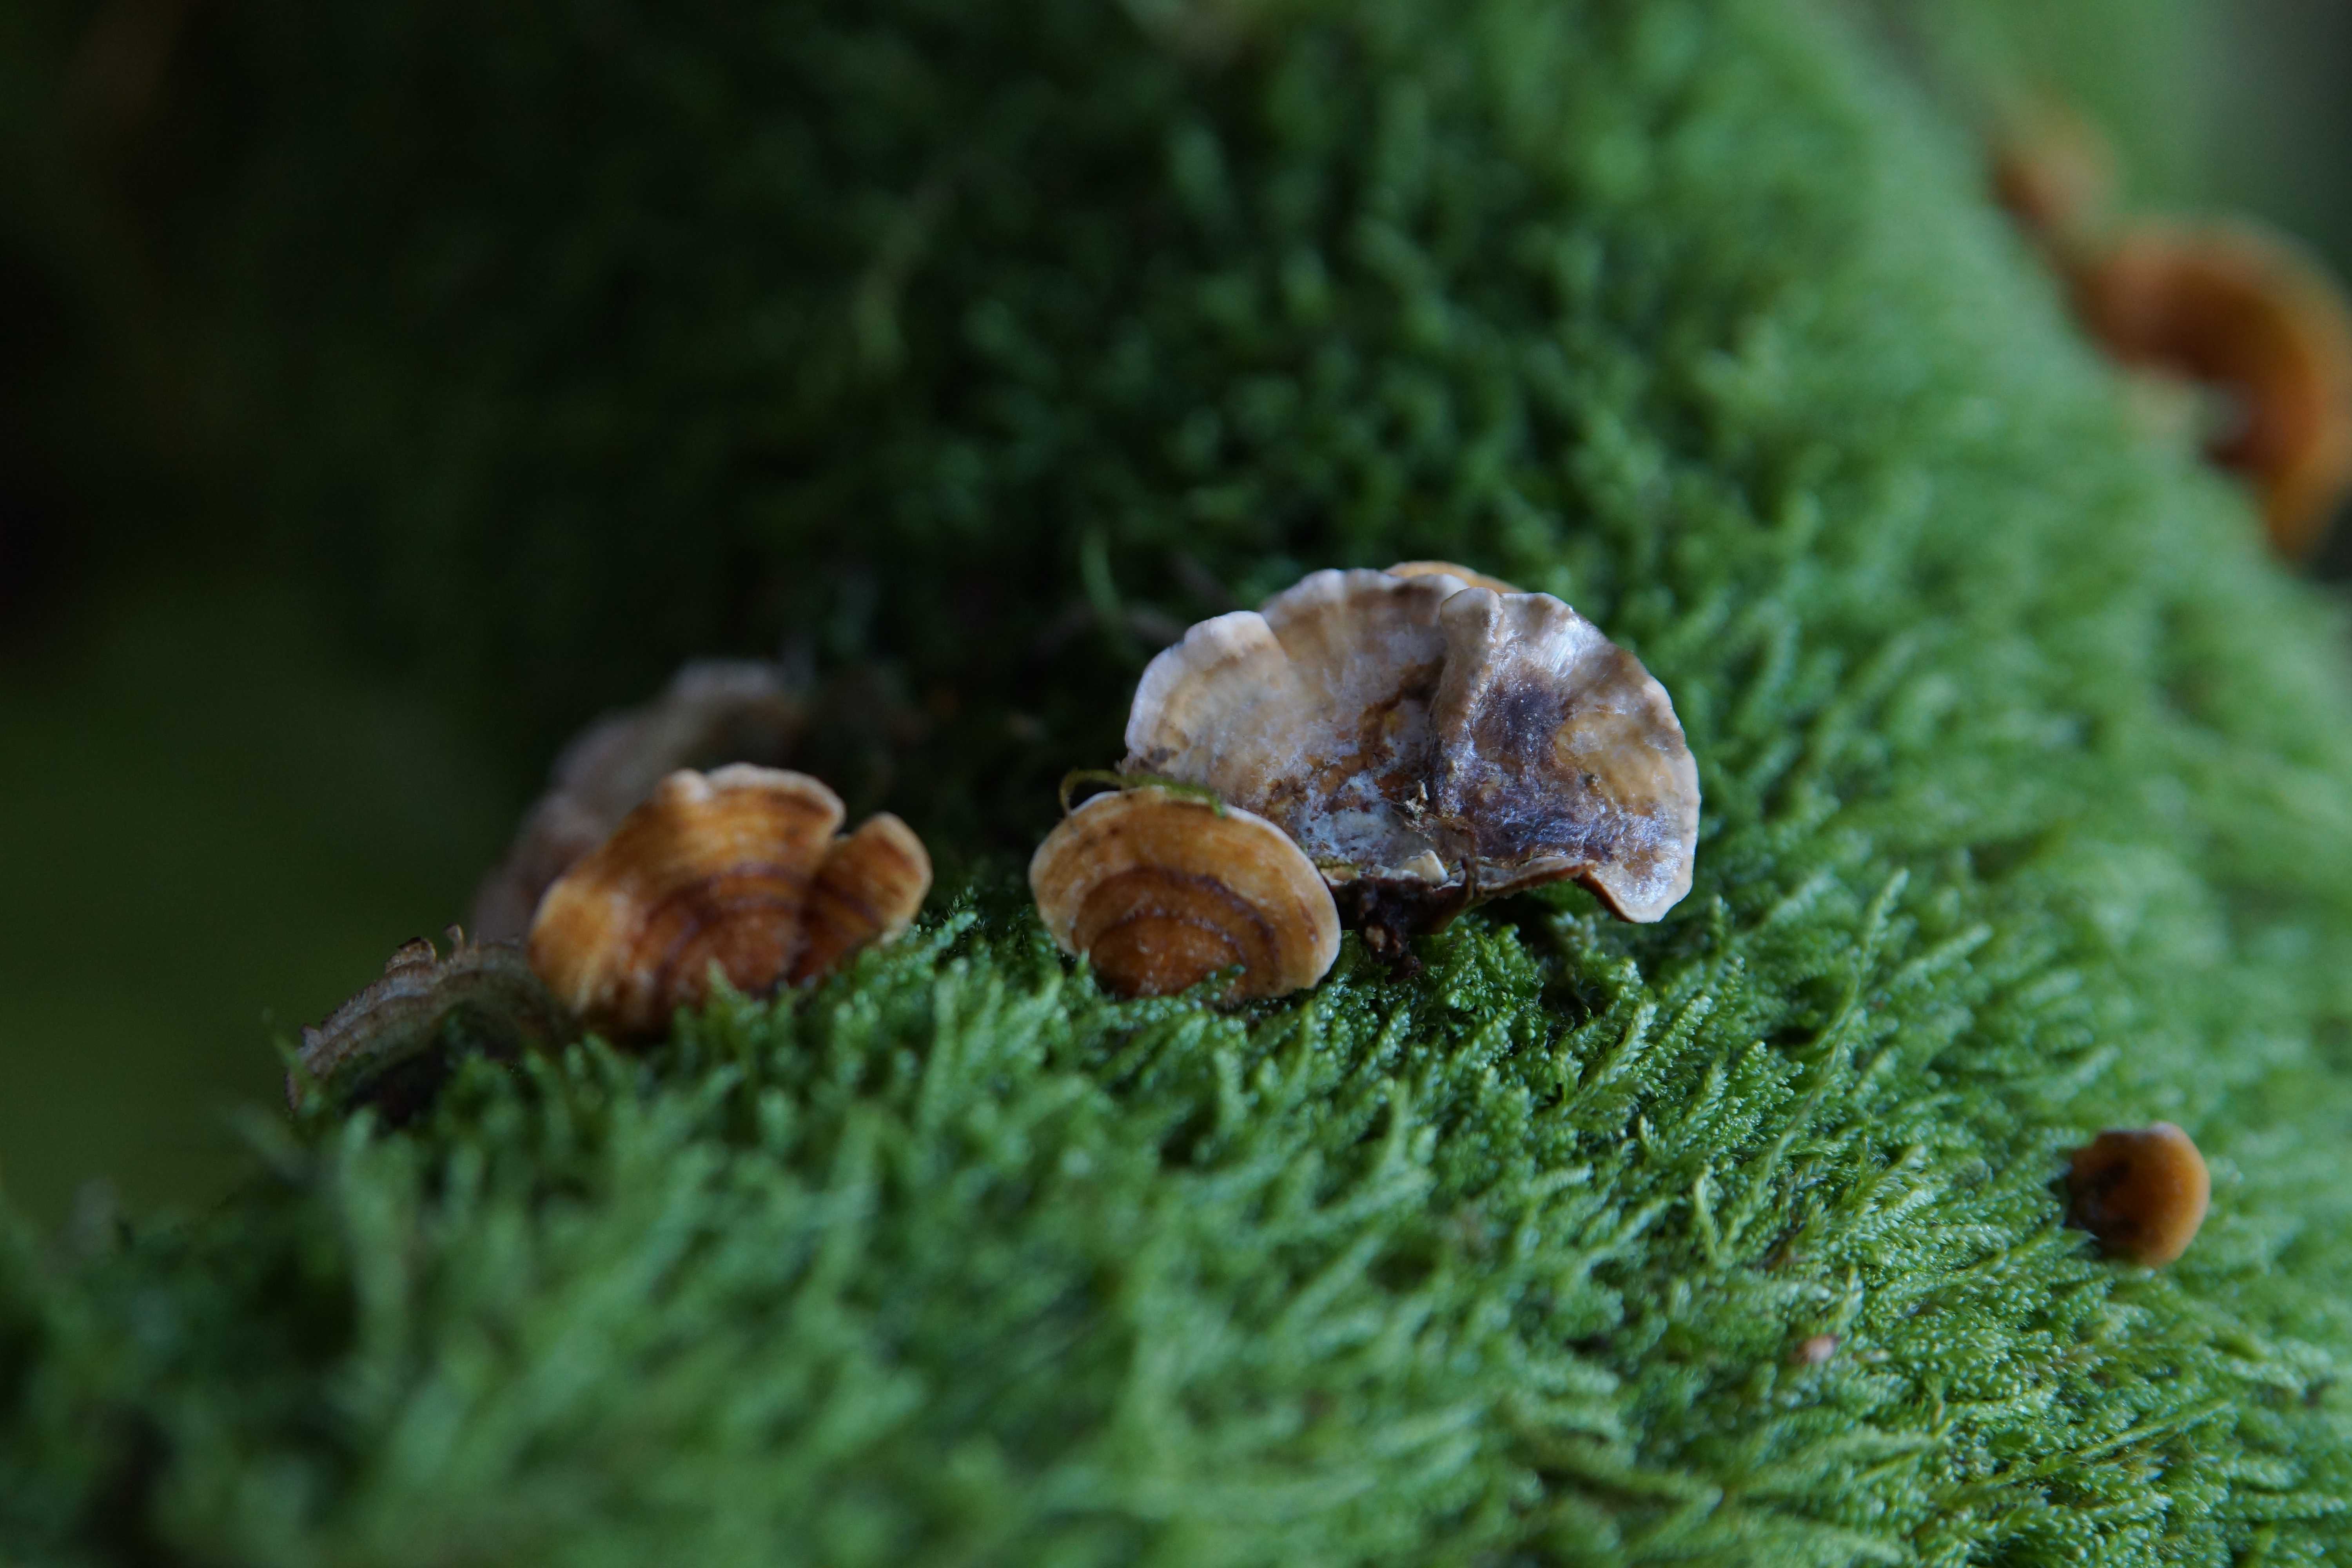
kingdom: Fungi
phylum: Basidiomycota
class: Agaricomycetes
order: Russulales
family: Stereaceae
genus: Stereum
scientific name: Stereum hirsutum
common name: håret lædersvamp
